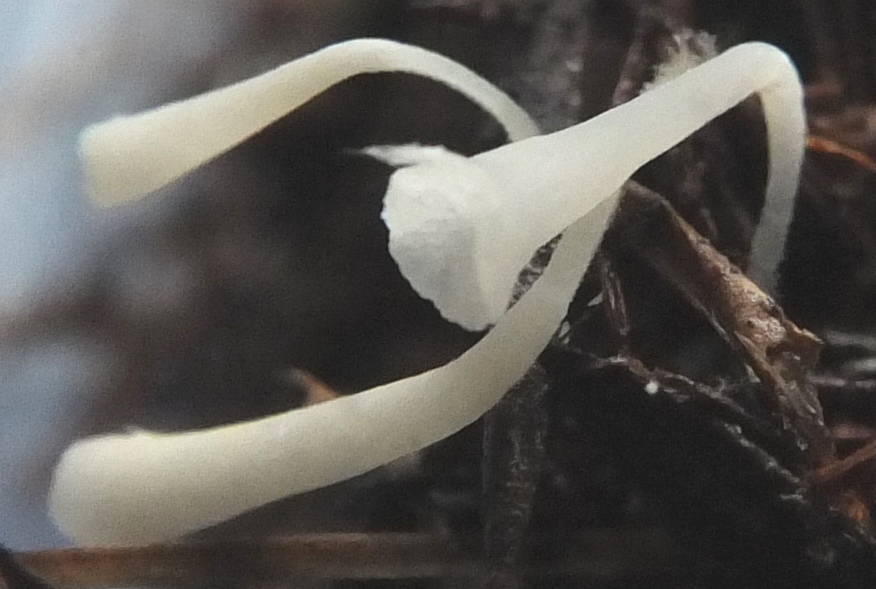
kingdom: Fungi
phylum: Basidiomycota
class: Agaricomycetes
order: Agaricales
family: Clavariaceae
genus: Clavicorona
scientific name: Clavicorona taxophila
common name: trompetkølle
